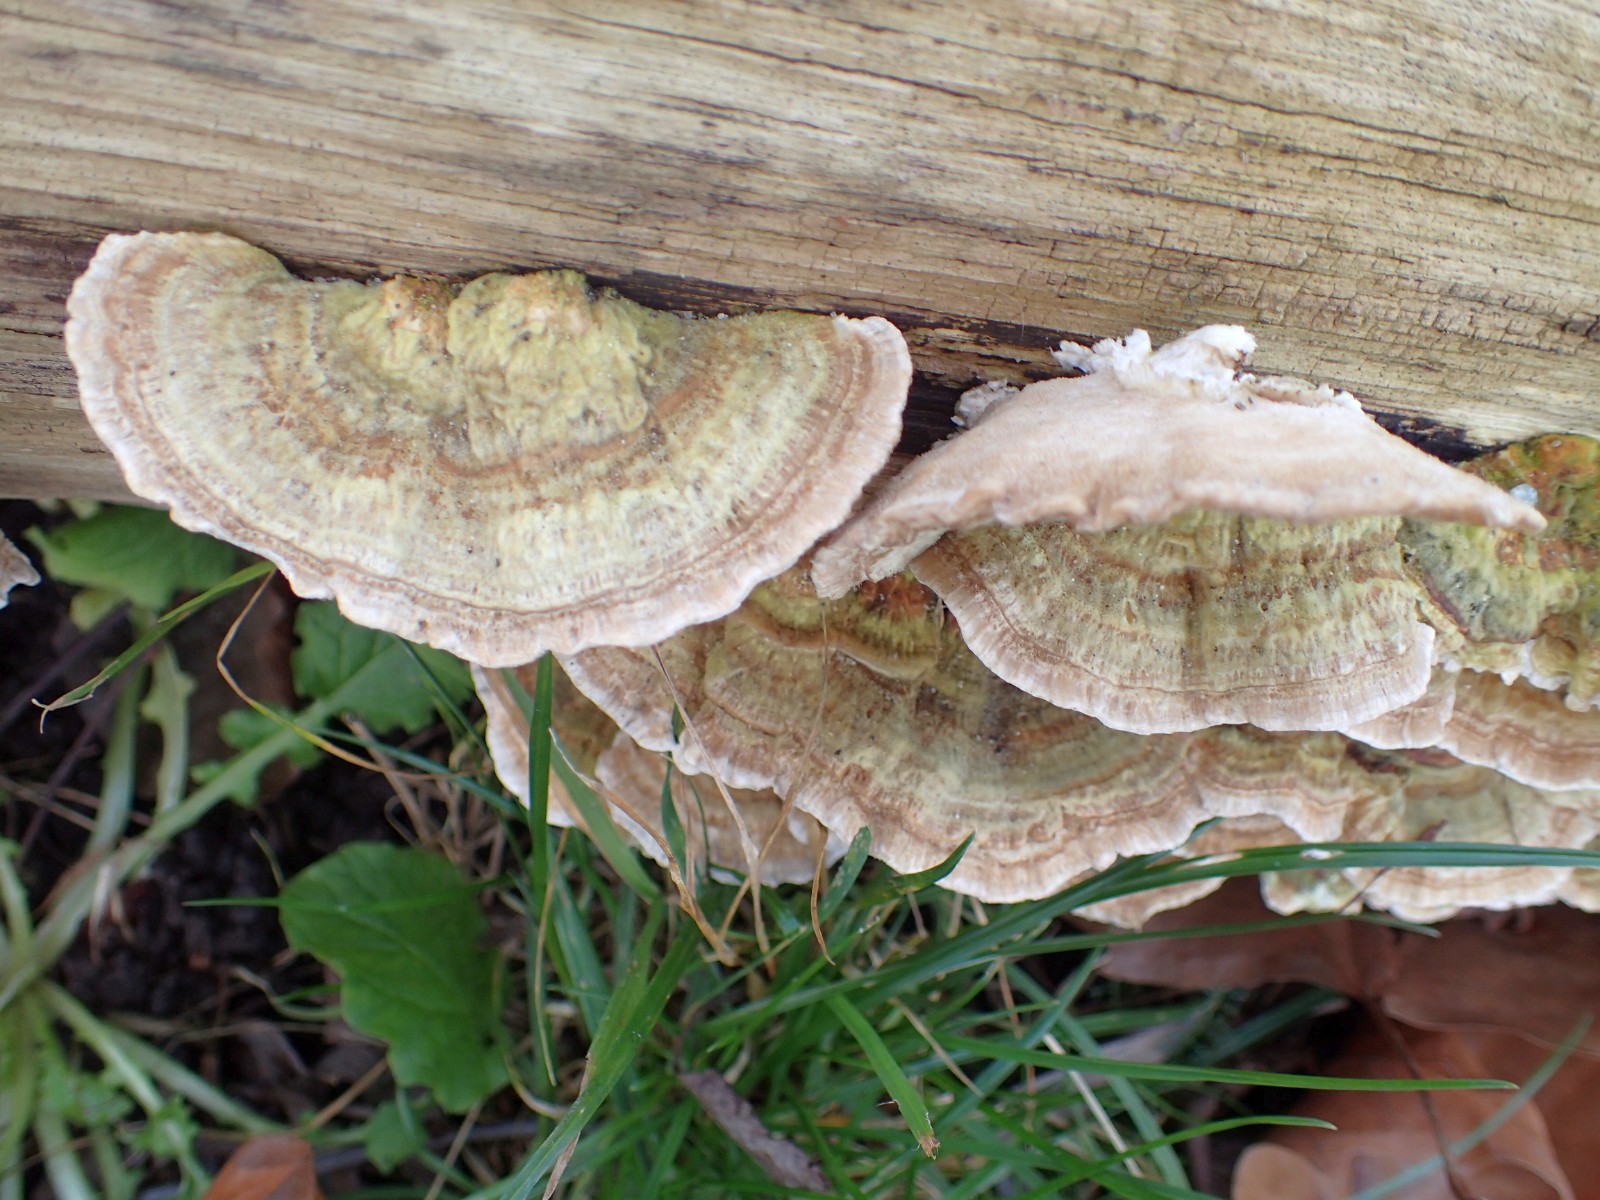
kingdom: Fungi
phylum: Basidiomycota
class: Agaricomycetes
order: Polyporales
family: Polyporaceae
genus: Trametes
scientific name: Trametes ochracea
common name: bæltet læderporesvamp
